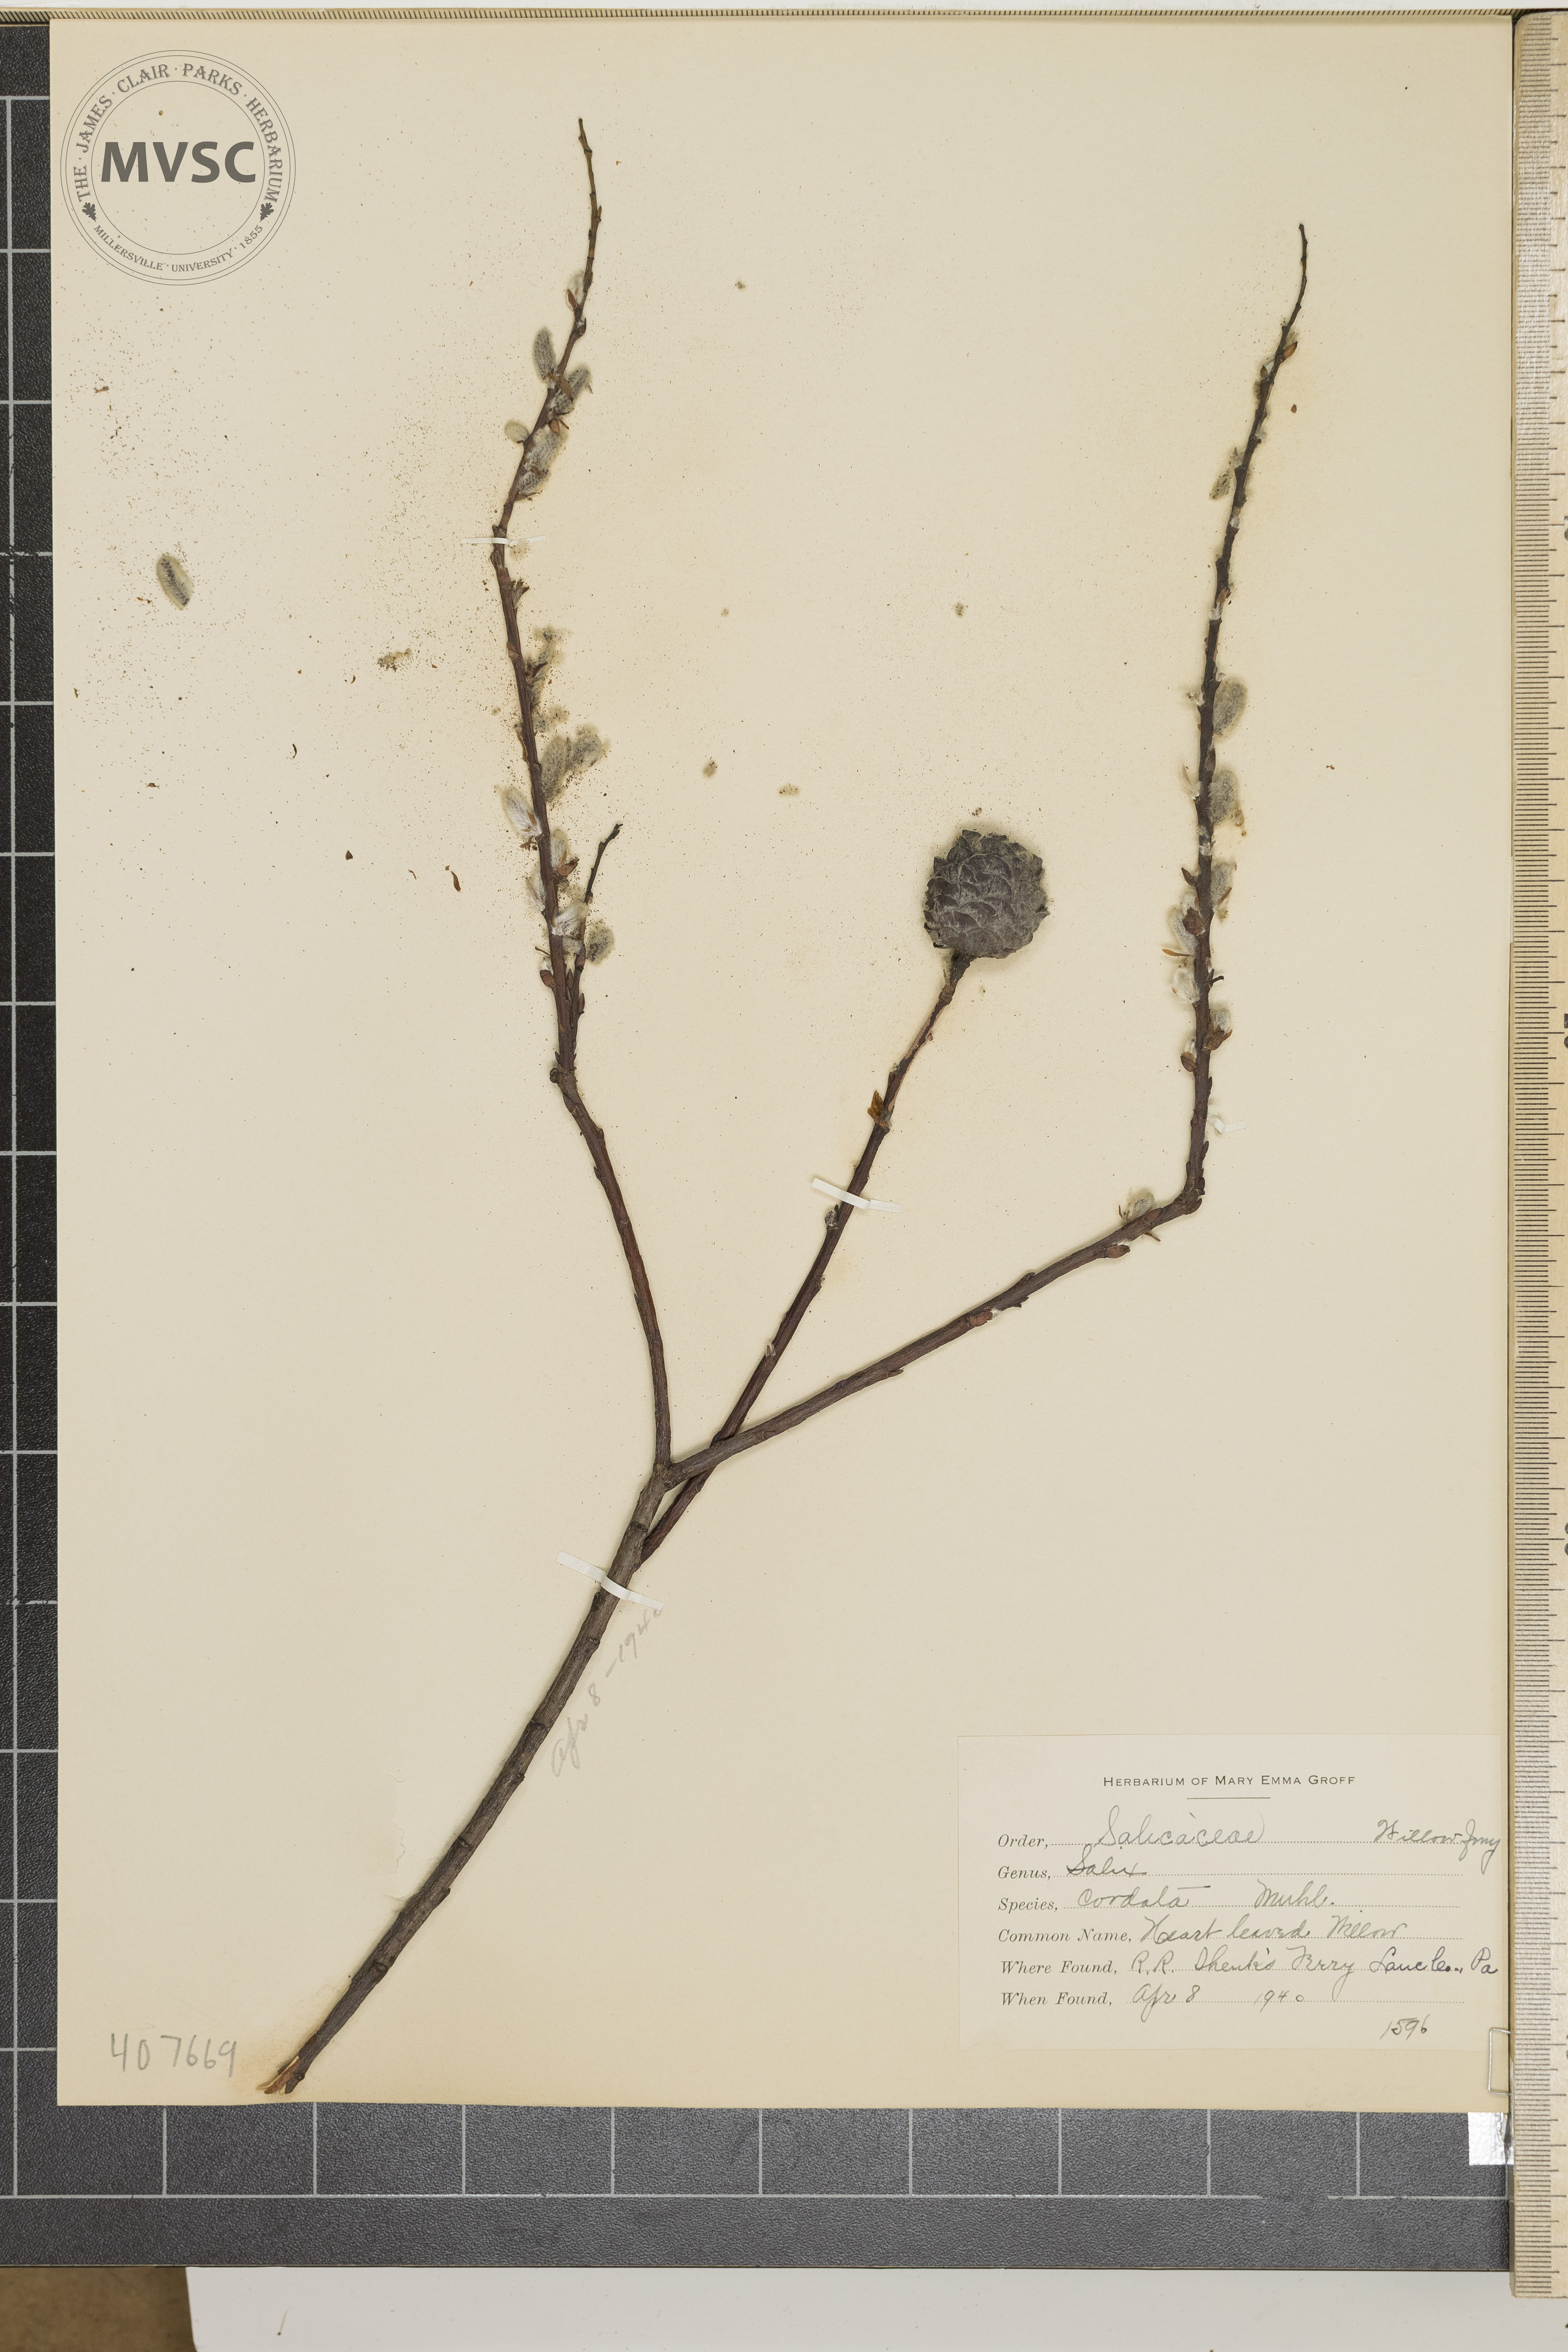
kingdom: Plantae
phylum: Tracheophyta
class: Magnoliopsida
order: Malpighiales
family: Salicaceae
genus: Salix
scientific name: Salix cordata
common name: Heart-leaved Willow
